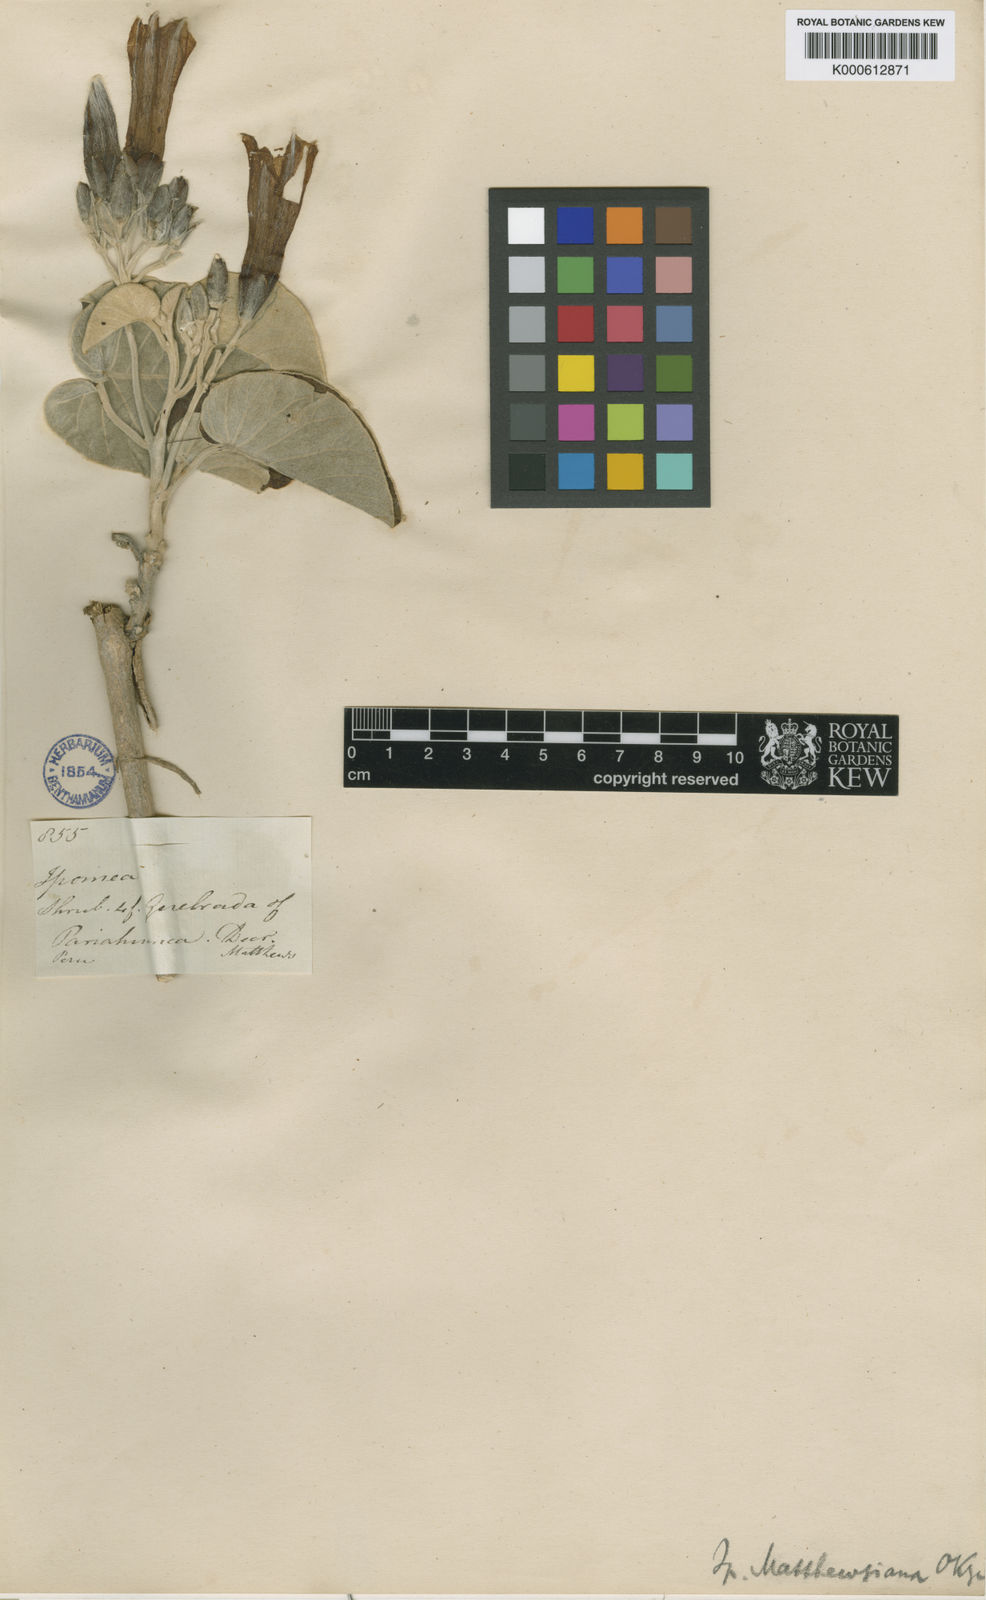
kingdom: Plantae
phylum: Tracheophyta
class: Magnoliopsida
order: Solanales
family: Convolvulaceae
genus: Ipomoea
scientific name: Ipomoea mathewsiana
